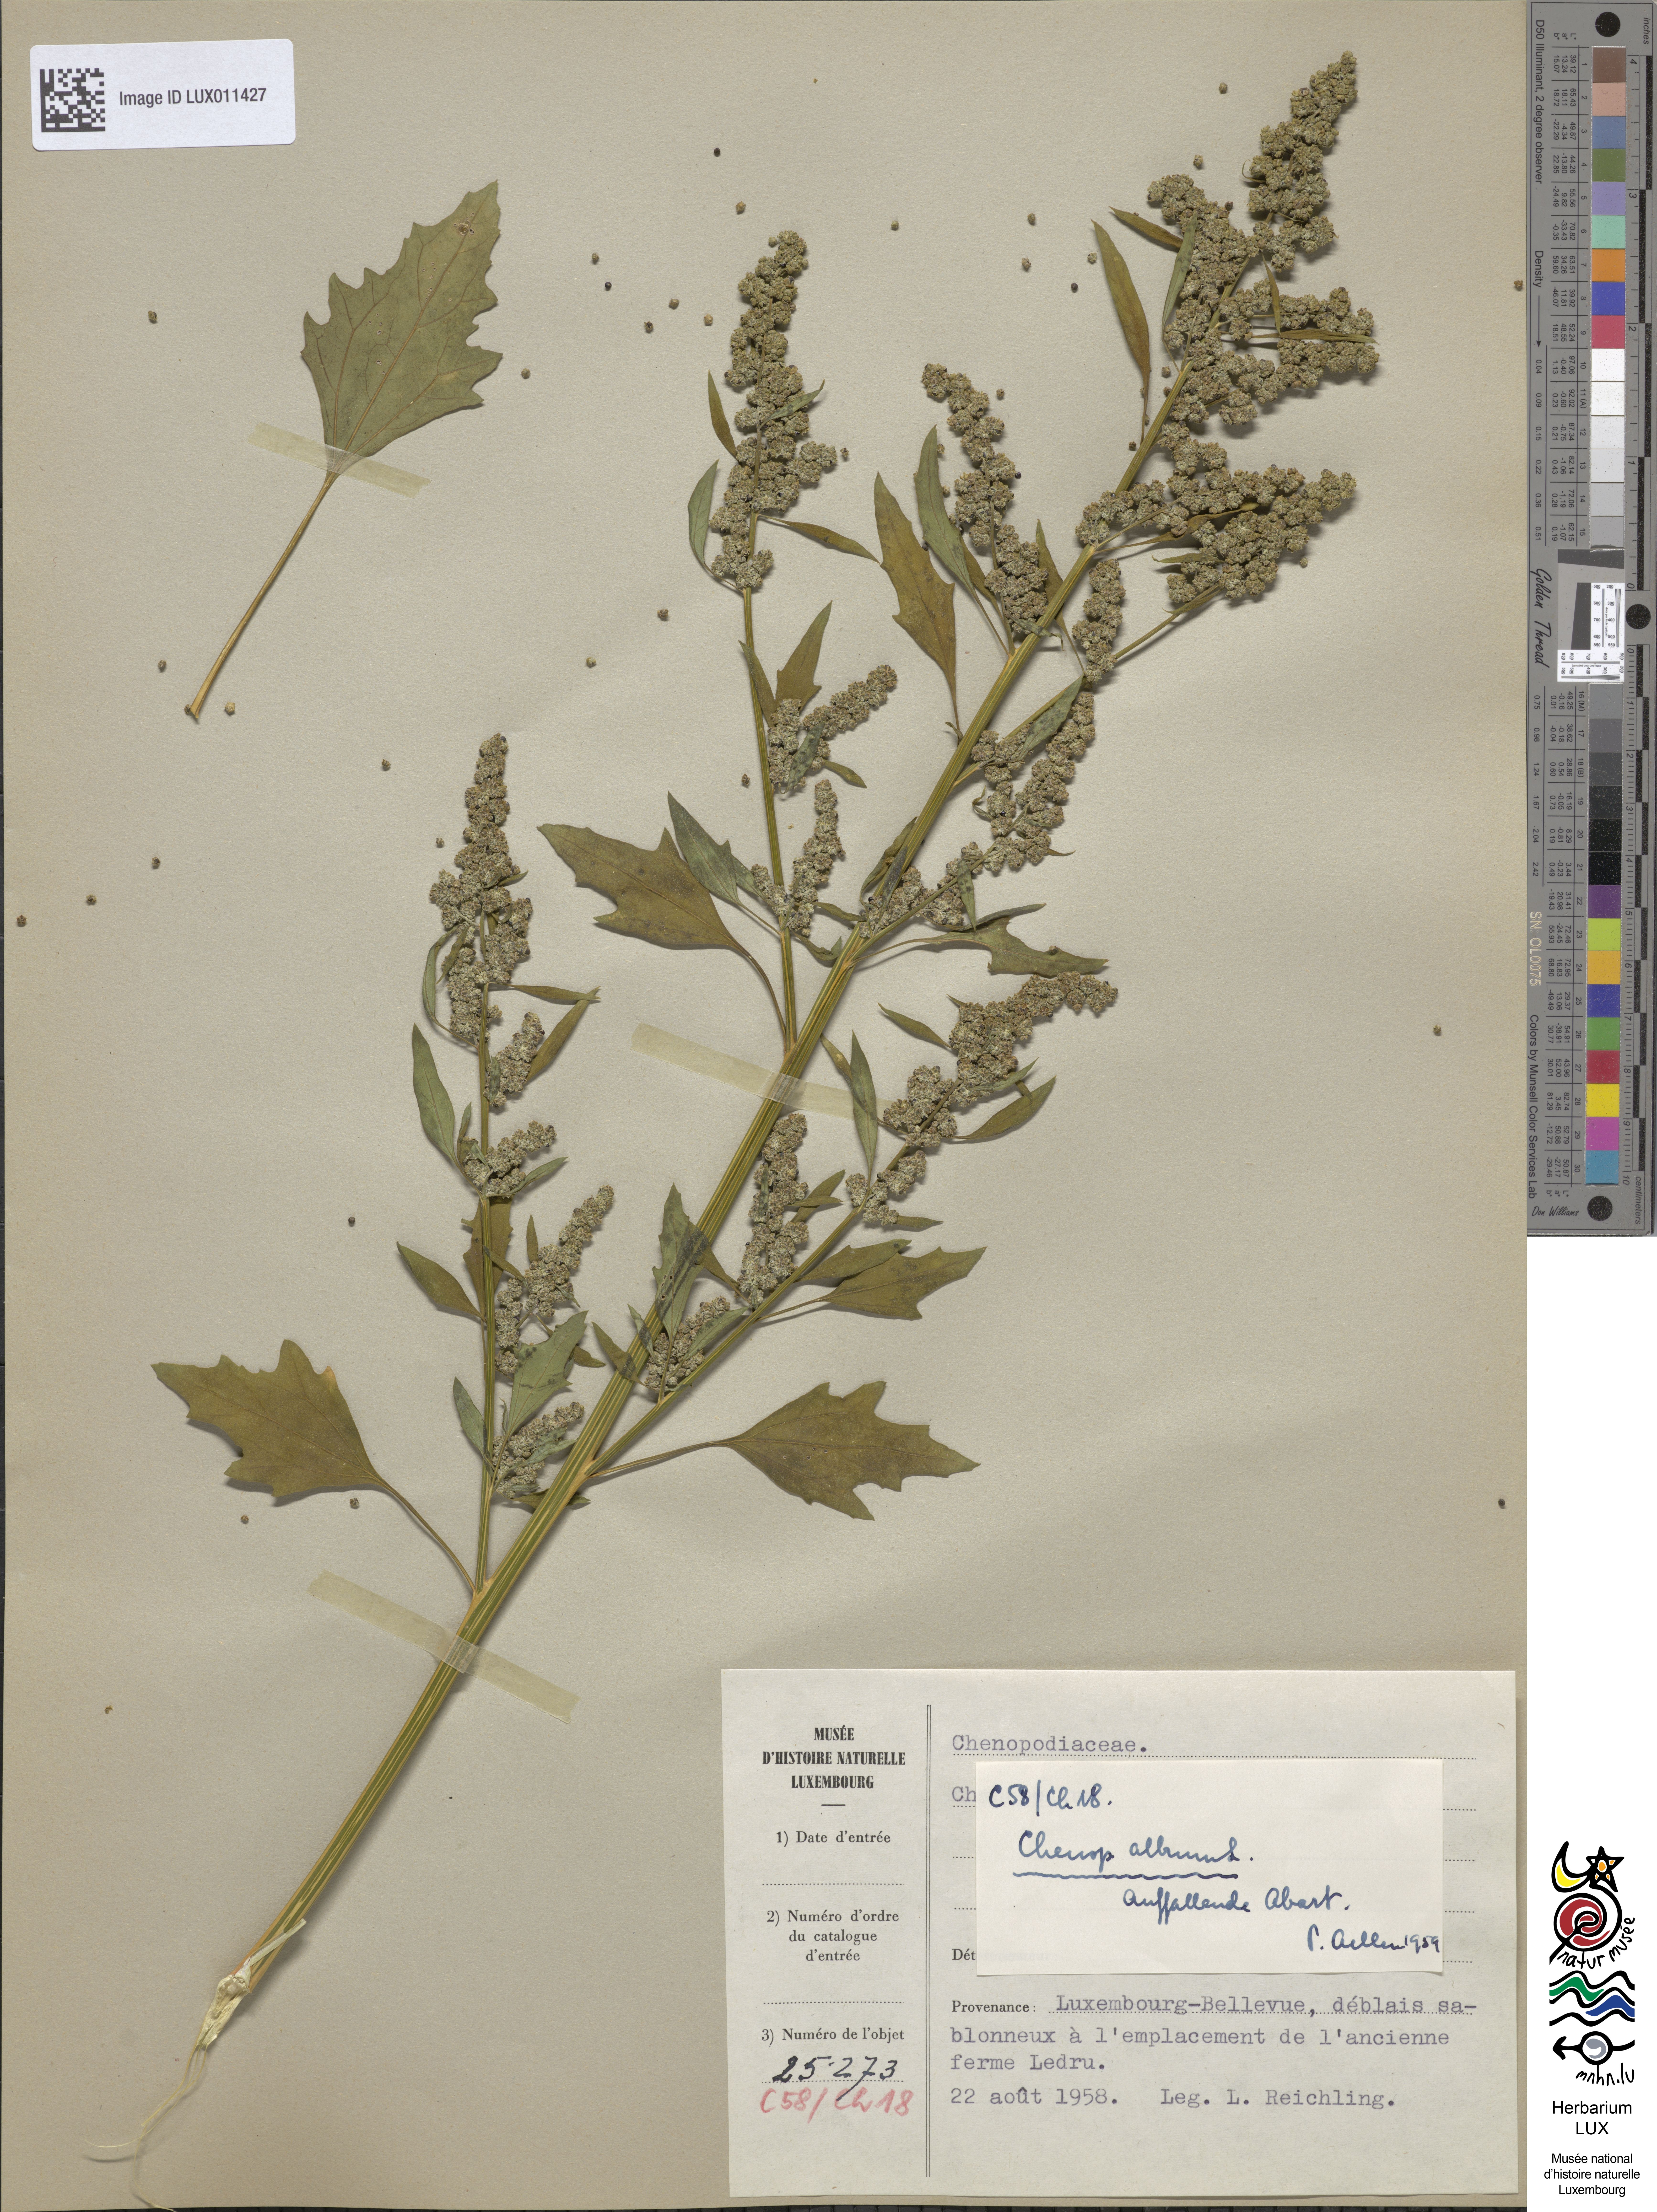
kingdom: Plantae
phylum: Tracheophyta
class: Magnoliopsida
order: Caryophyllales
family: Amaranthaceae
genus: Chenopodium
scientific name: Chenopodium album
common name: Fat-hen
